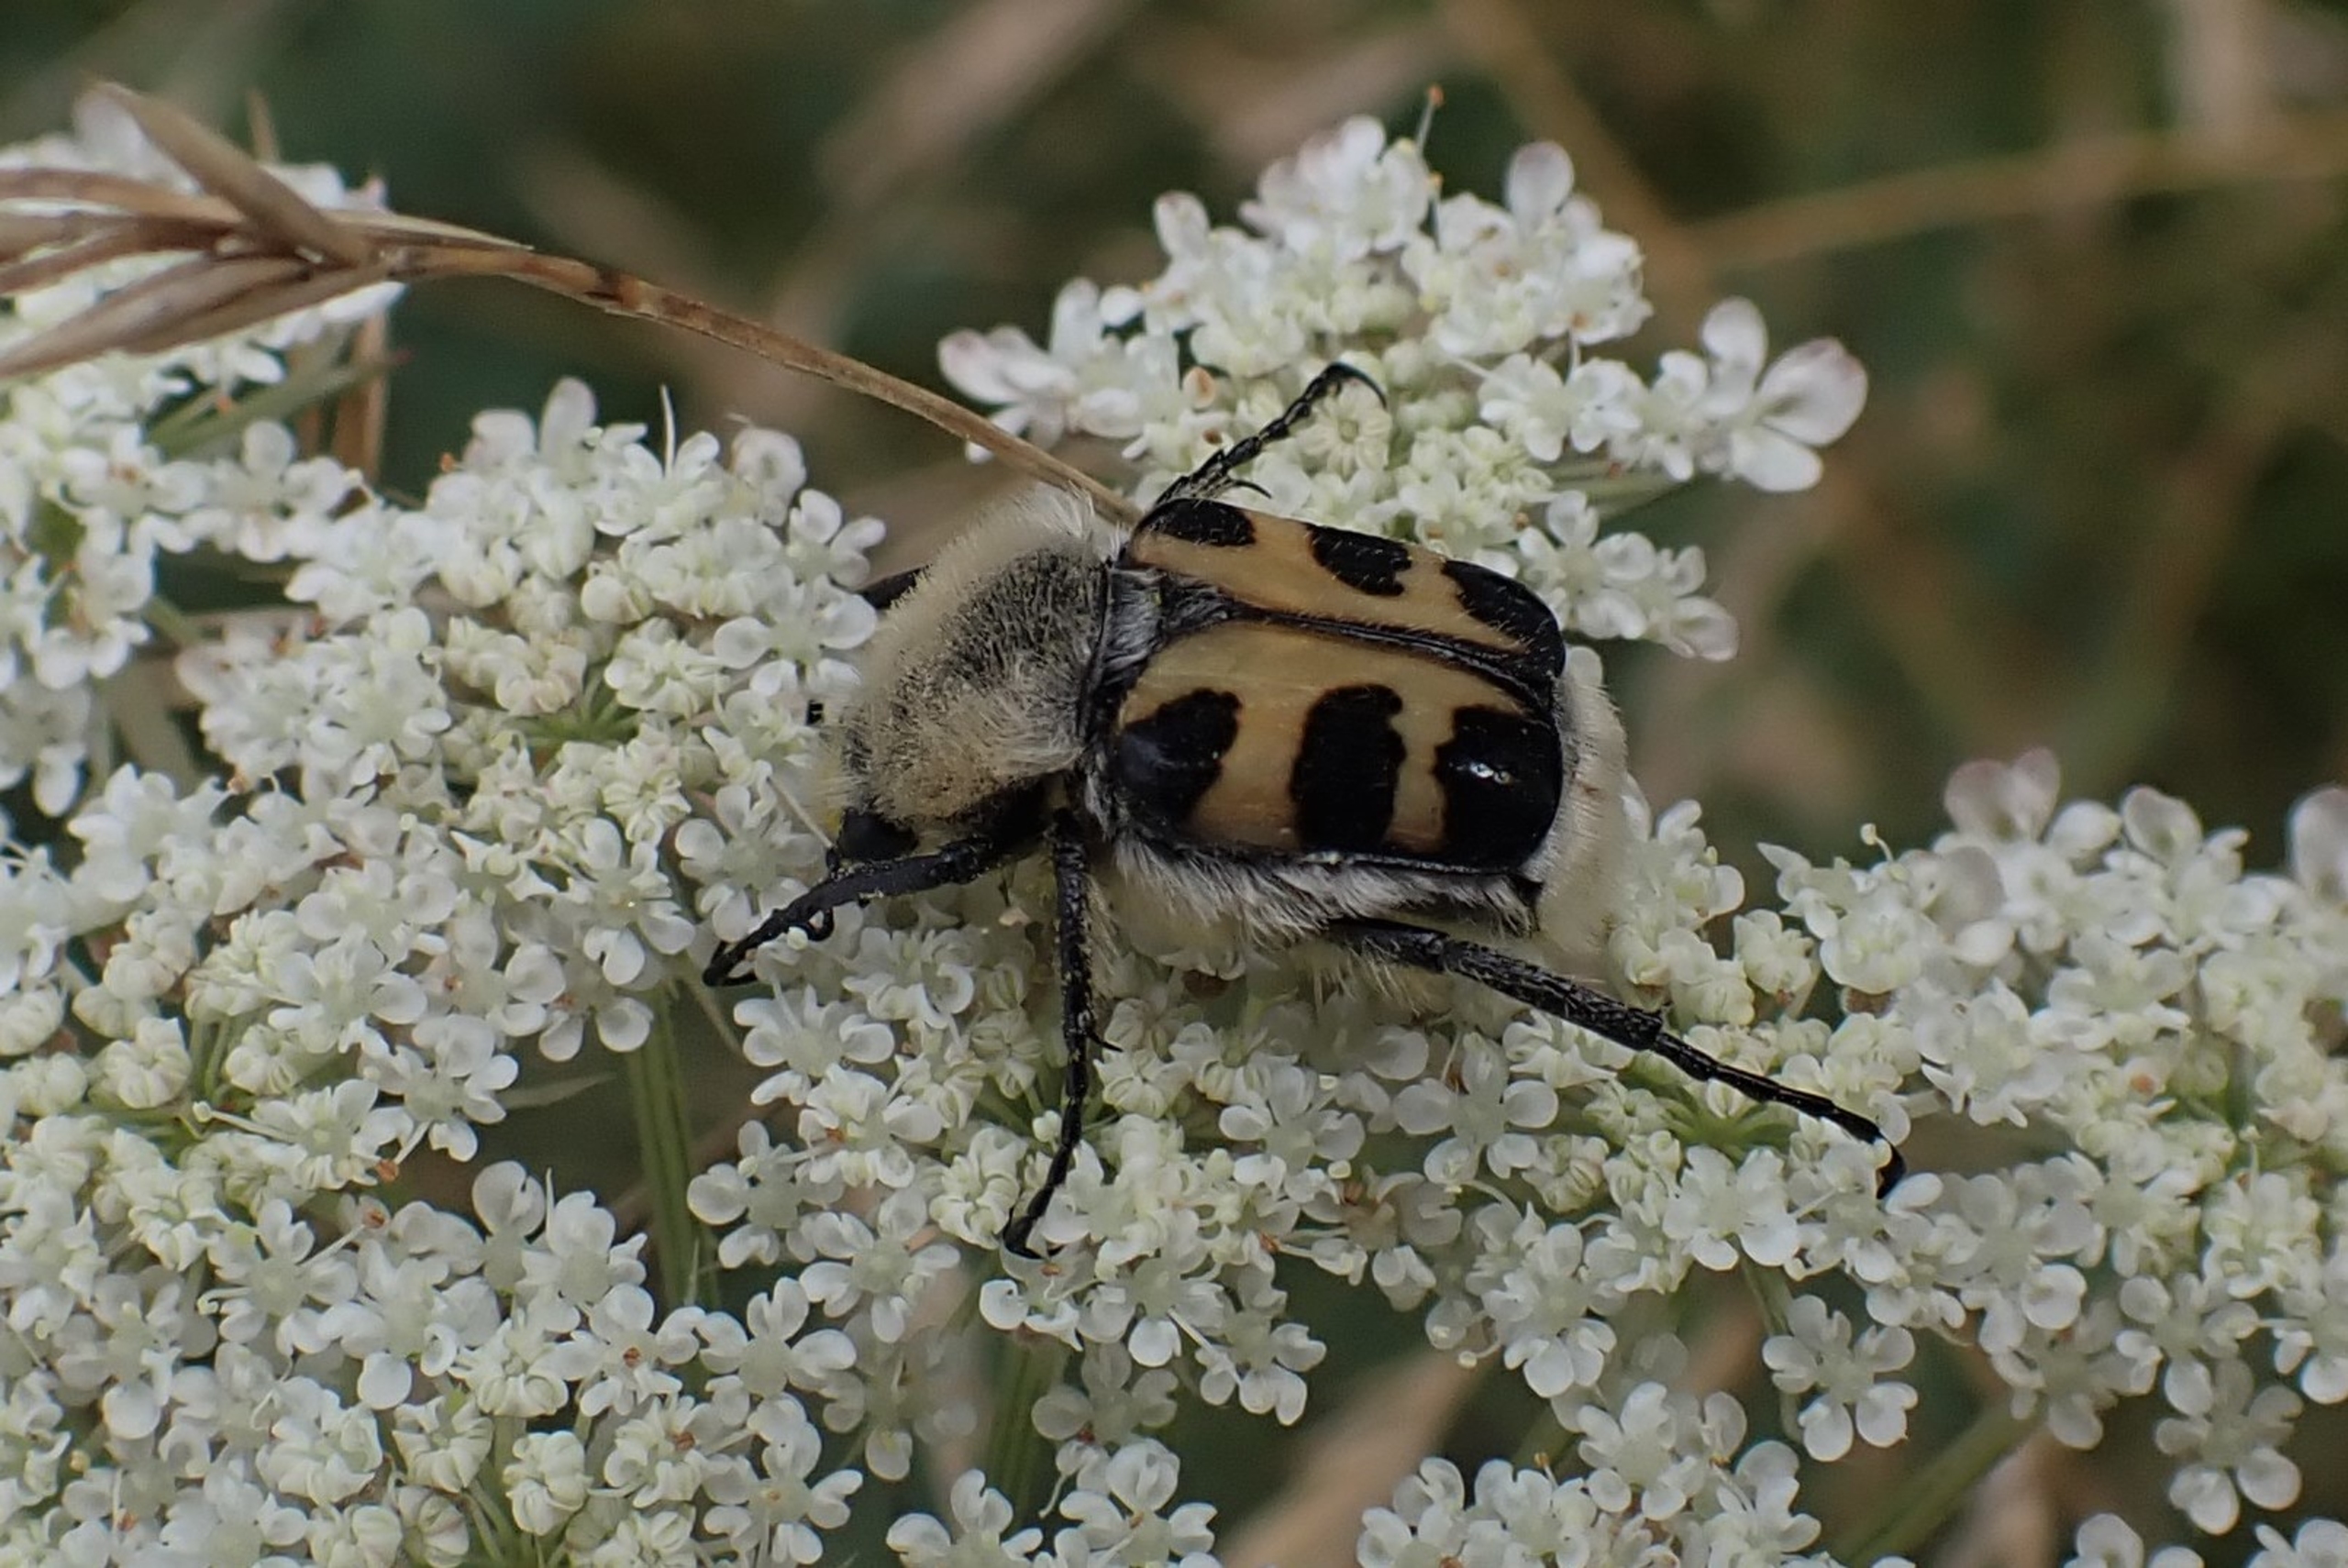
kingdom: Animalia
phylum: Arthropoda
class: Insecta
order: Coleoptera
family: Scarabaeidae
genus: Trichius
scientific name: Trichius gallicus
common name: Lille humlebille
